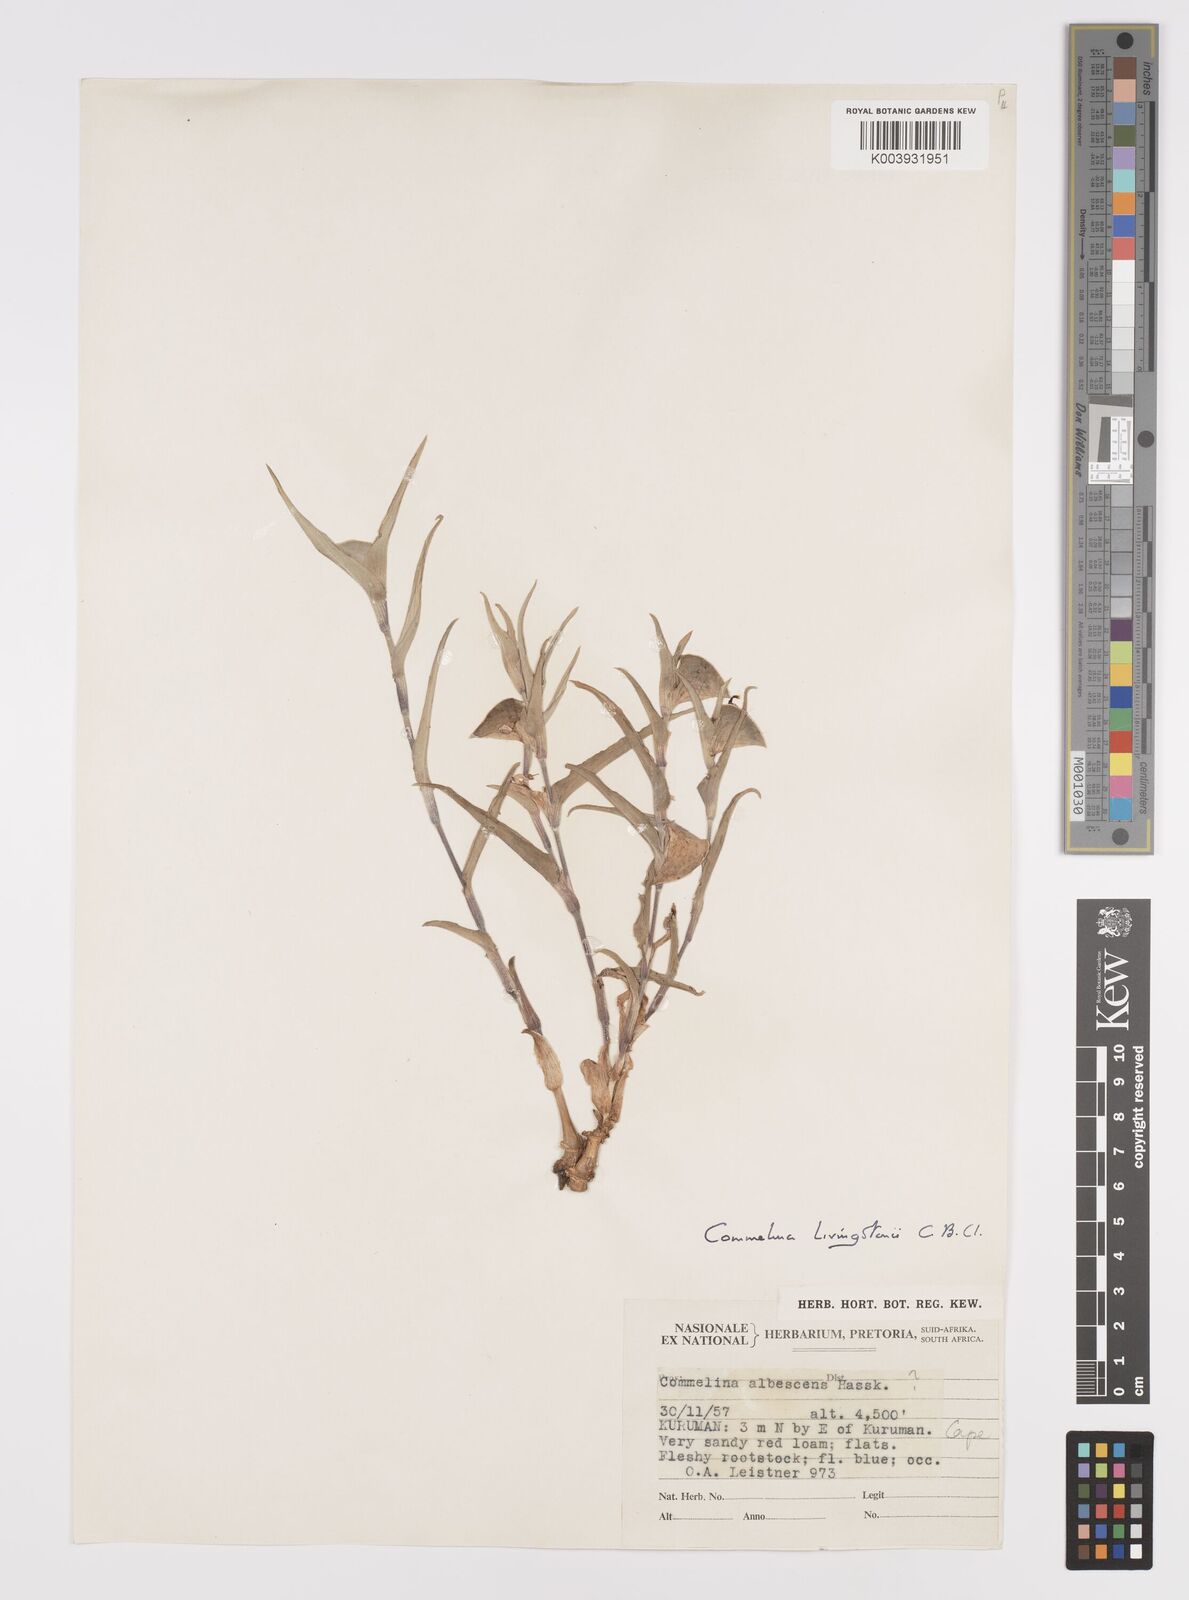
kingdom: Plantae
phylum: Tracheophyta
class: Liliopsida
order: Commelinales
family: Commelinaceae
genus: Commelina
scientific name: Commelina erecta
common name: Blousel blommetjie
